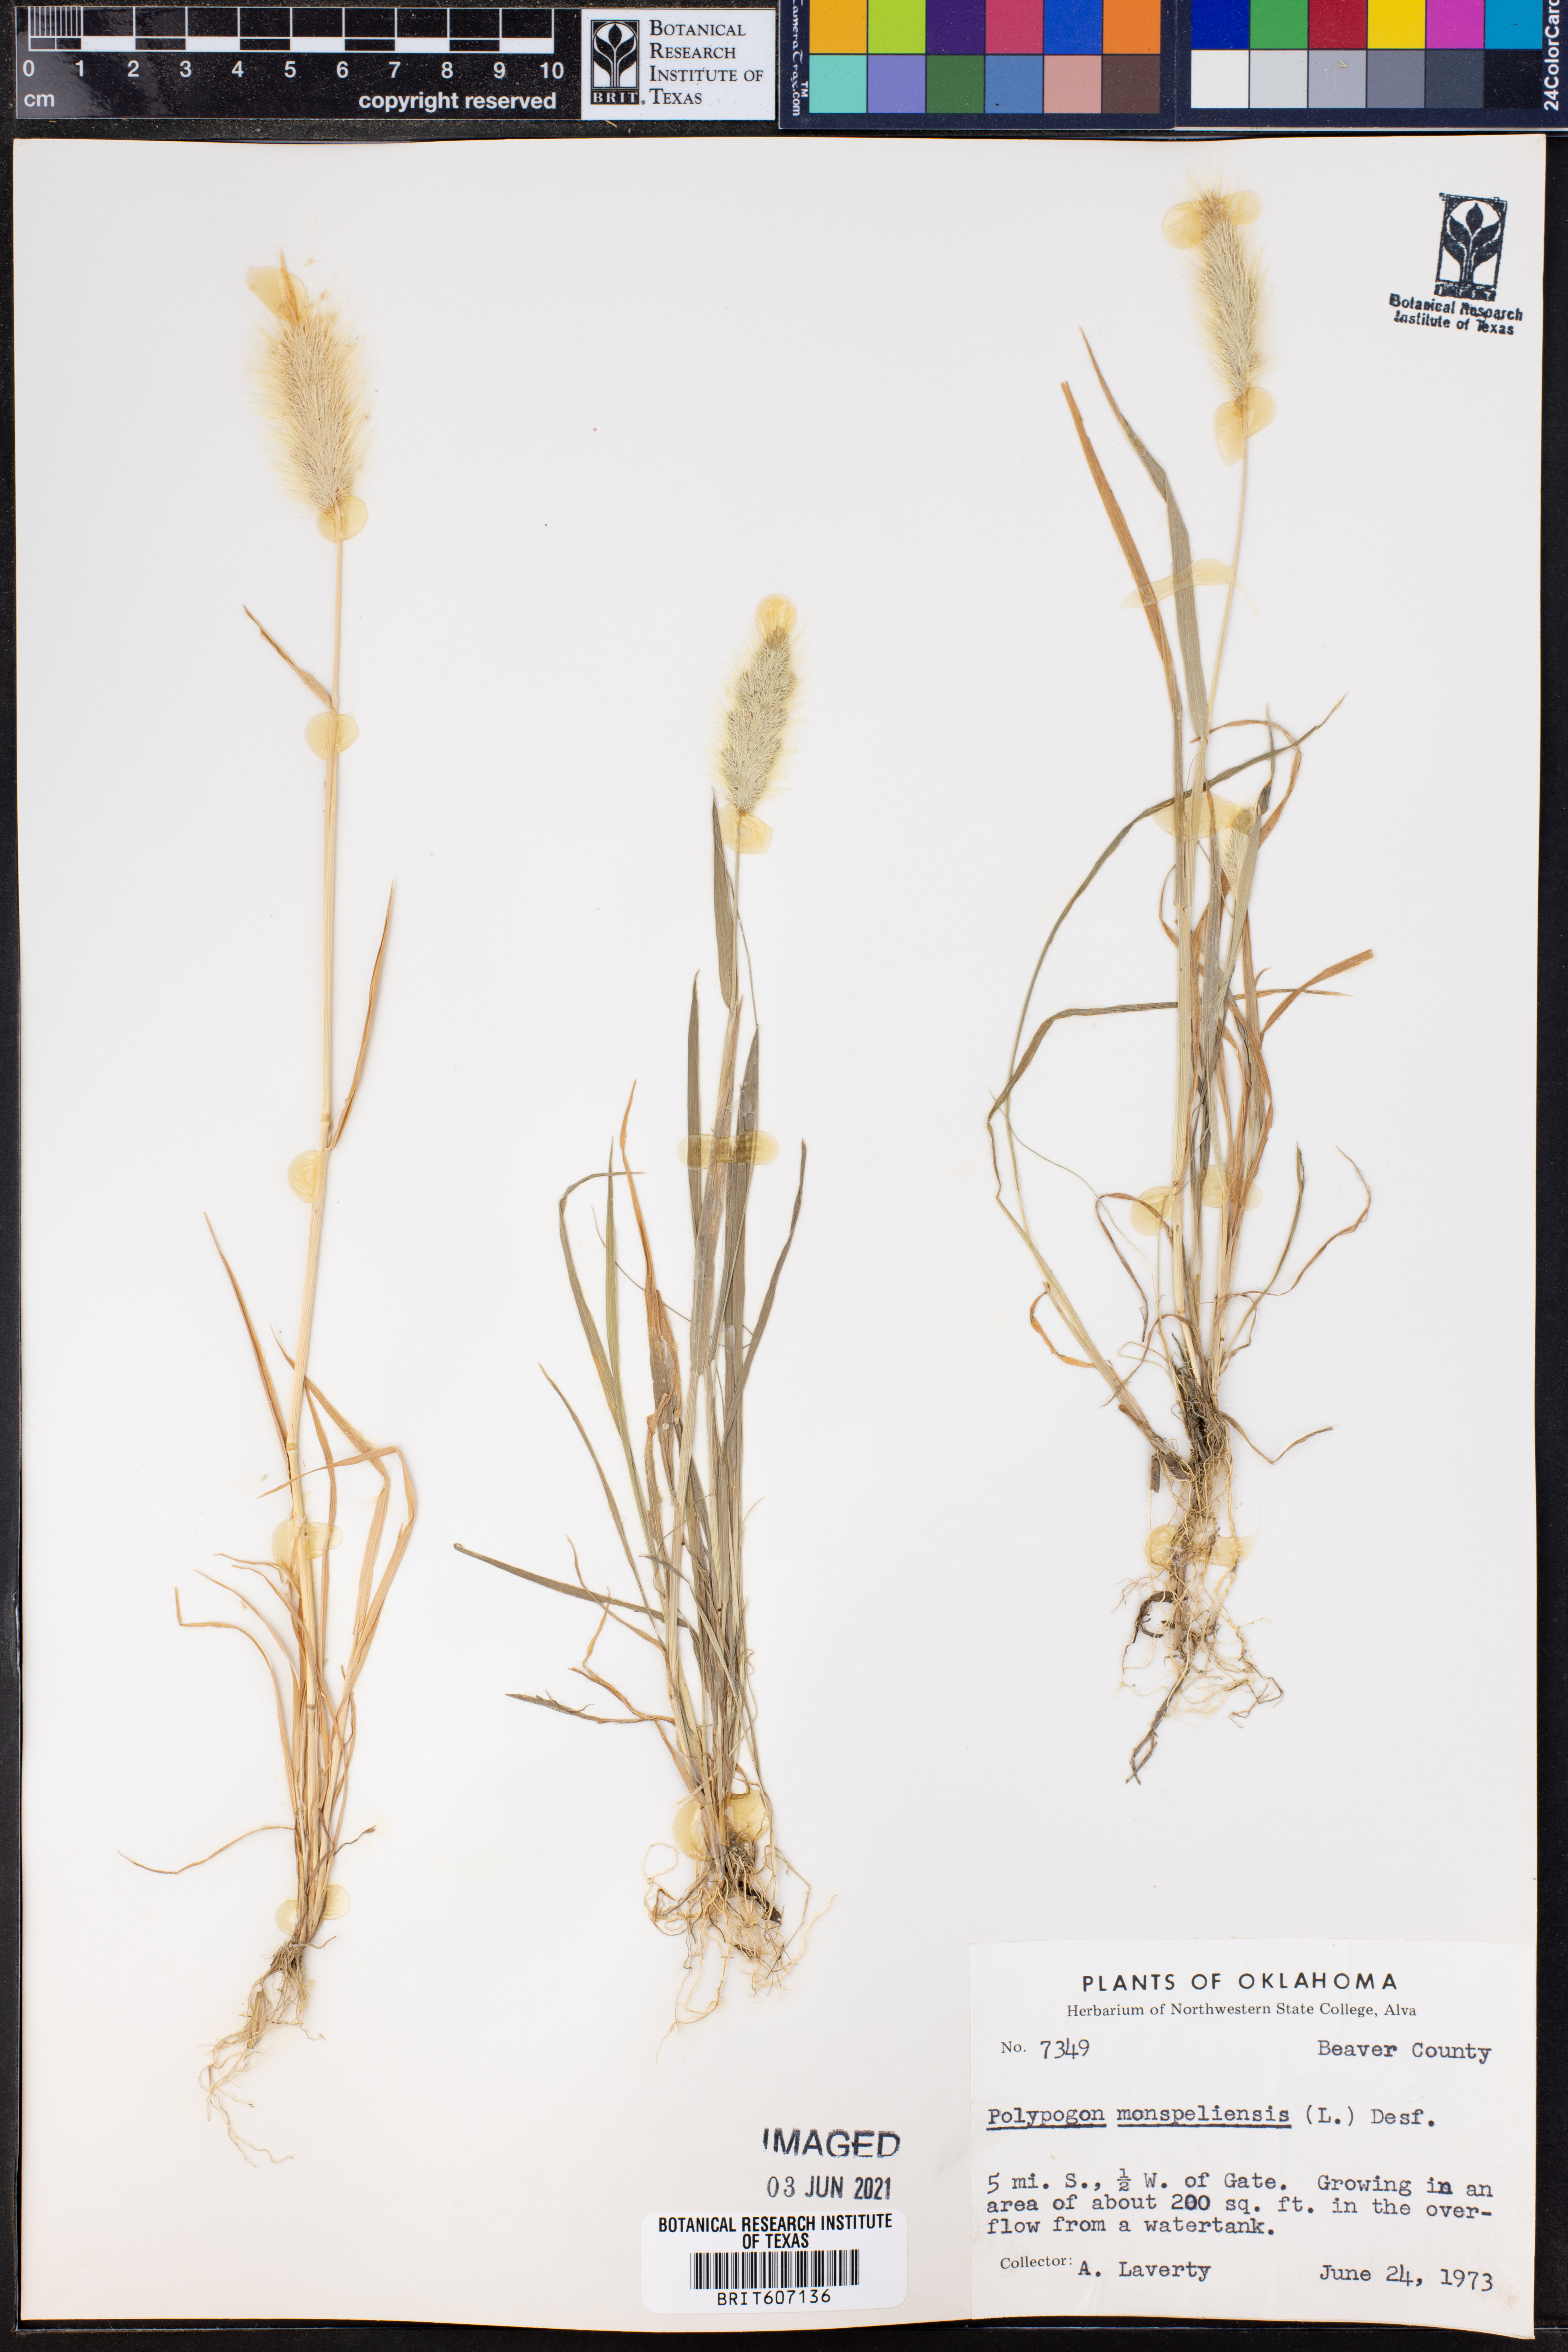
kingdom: Plantae
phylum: Tracheophyta
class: Liliopsida
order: Poales
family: Poaceae
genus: Polypogon
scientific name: Polypogon monspeliensis
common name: Annual rabbitsfoot grass
